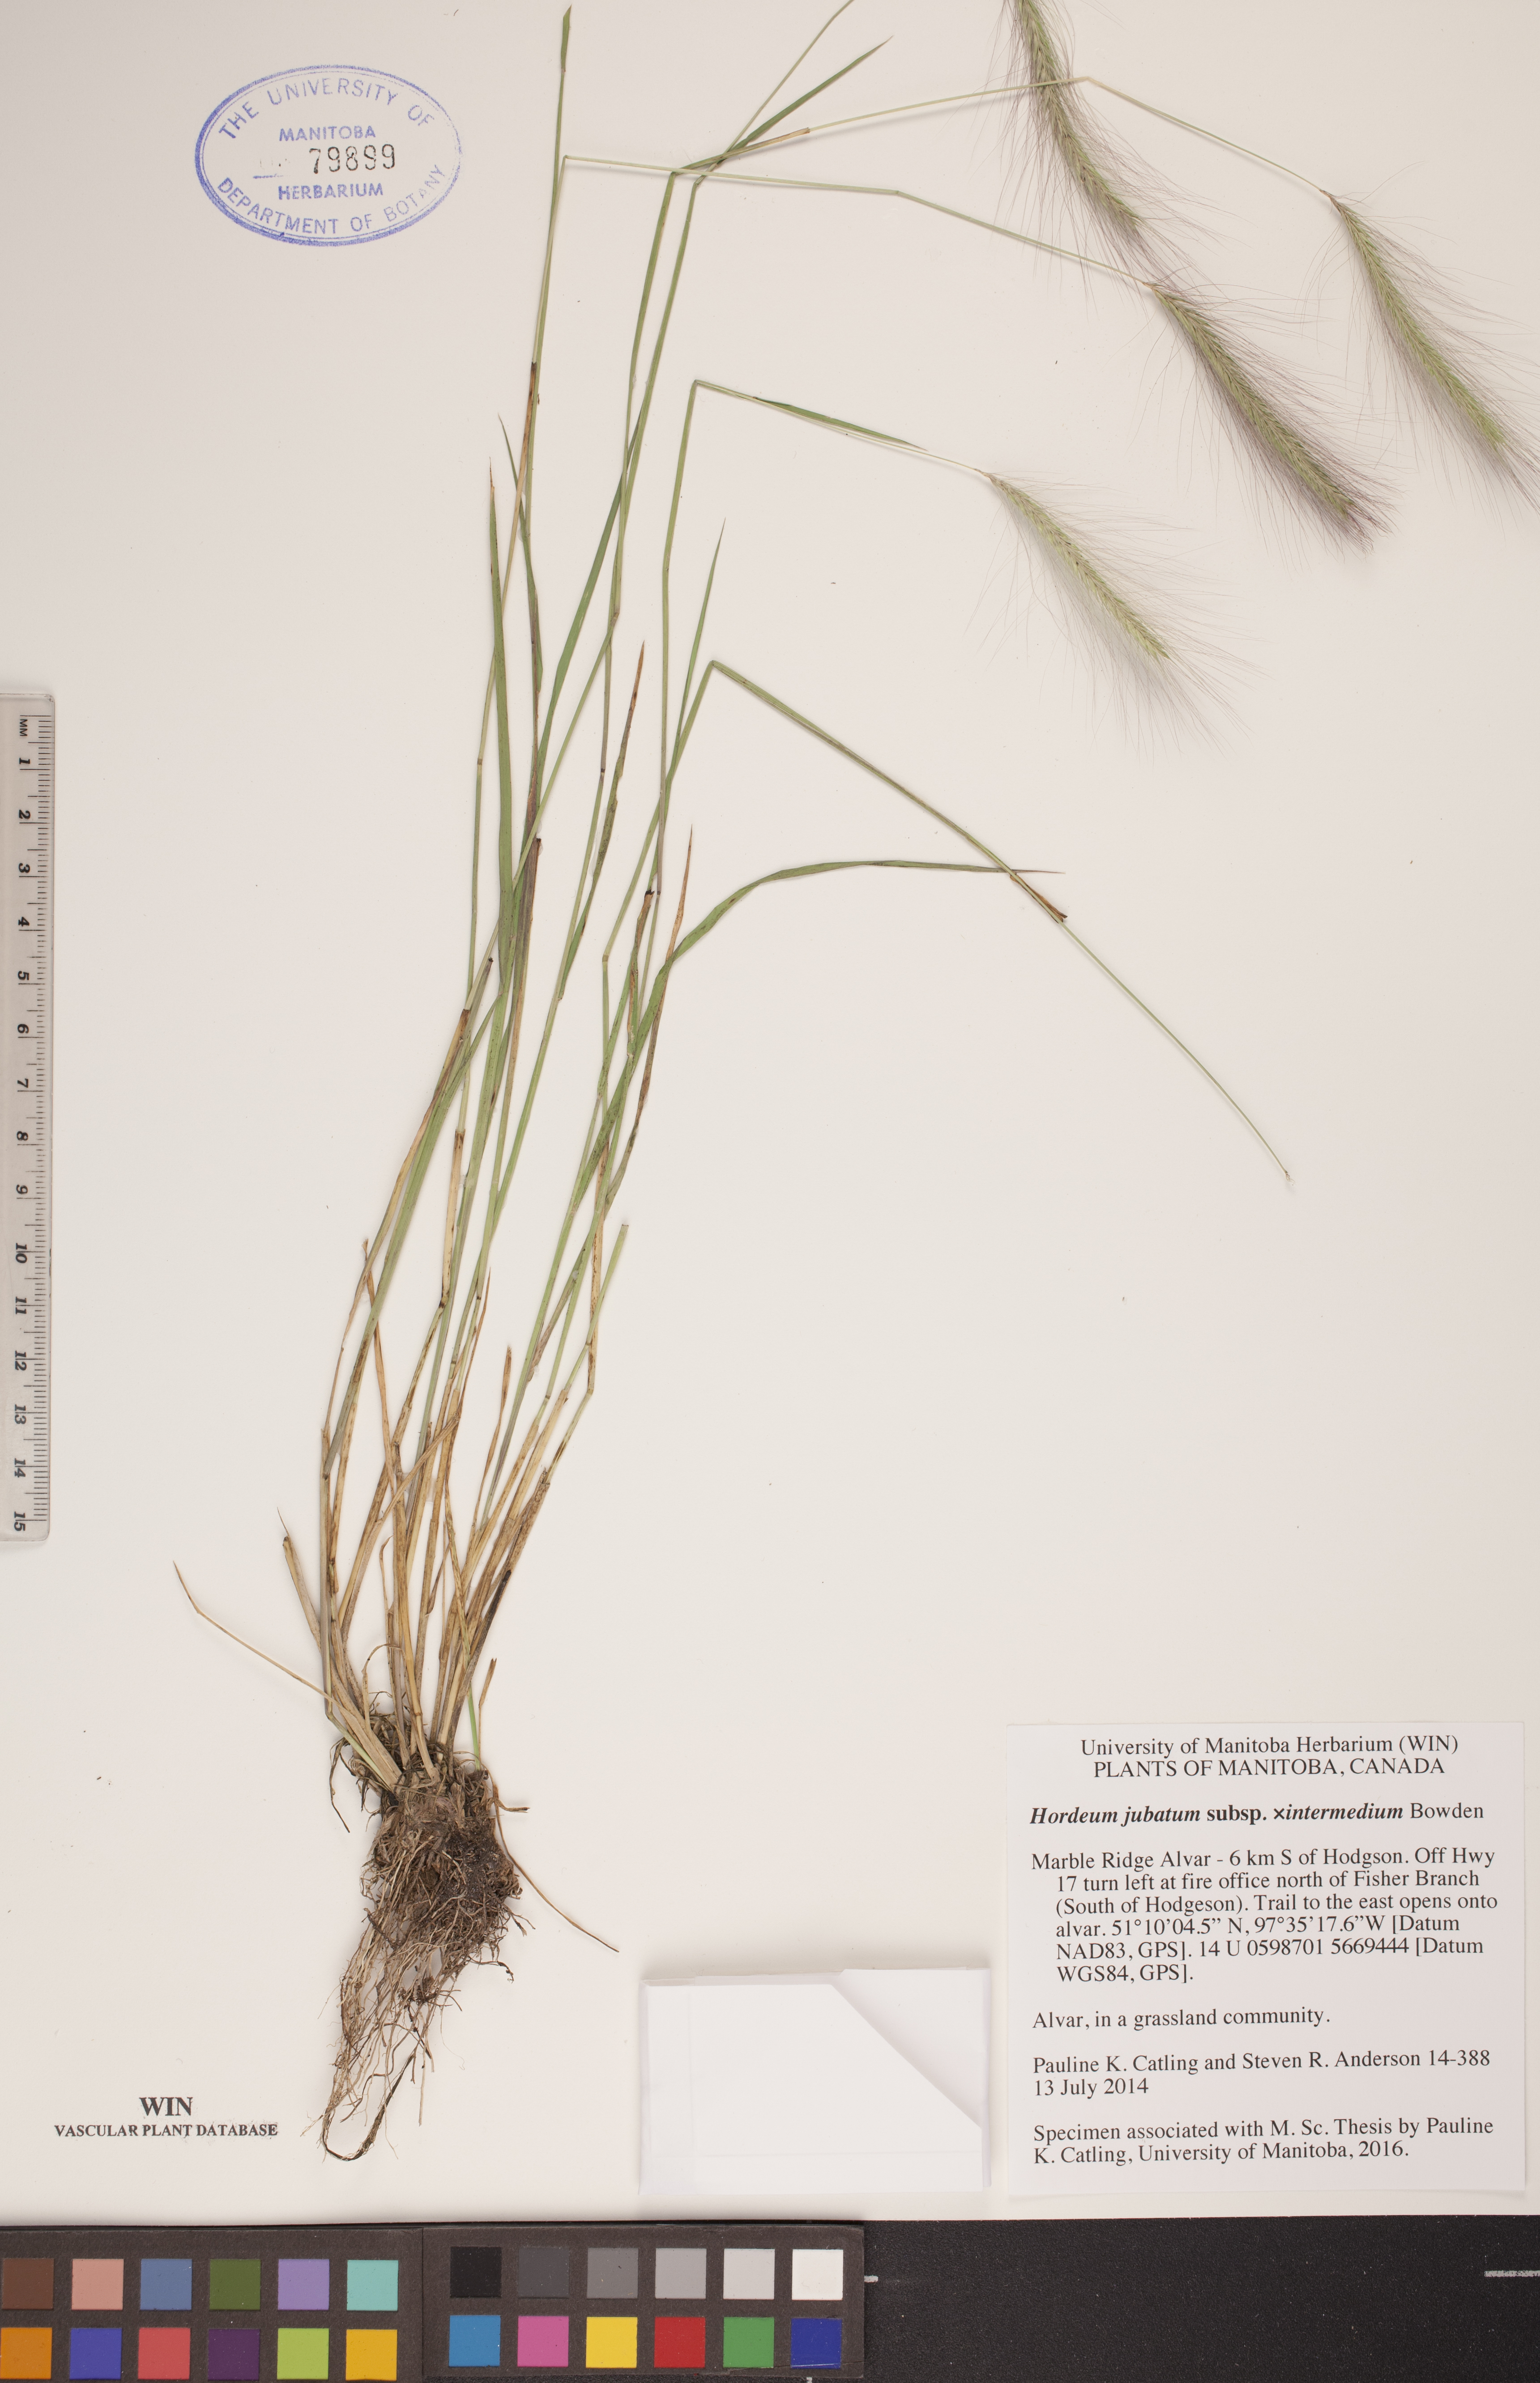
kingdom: Plantae
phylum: Tracheophyta
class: Liliopsida
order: Poales
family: Poaceae
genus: Hordeum
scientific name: Hordeum jubatum
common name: Foxtail barley
